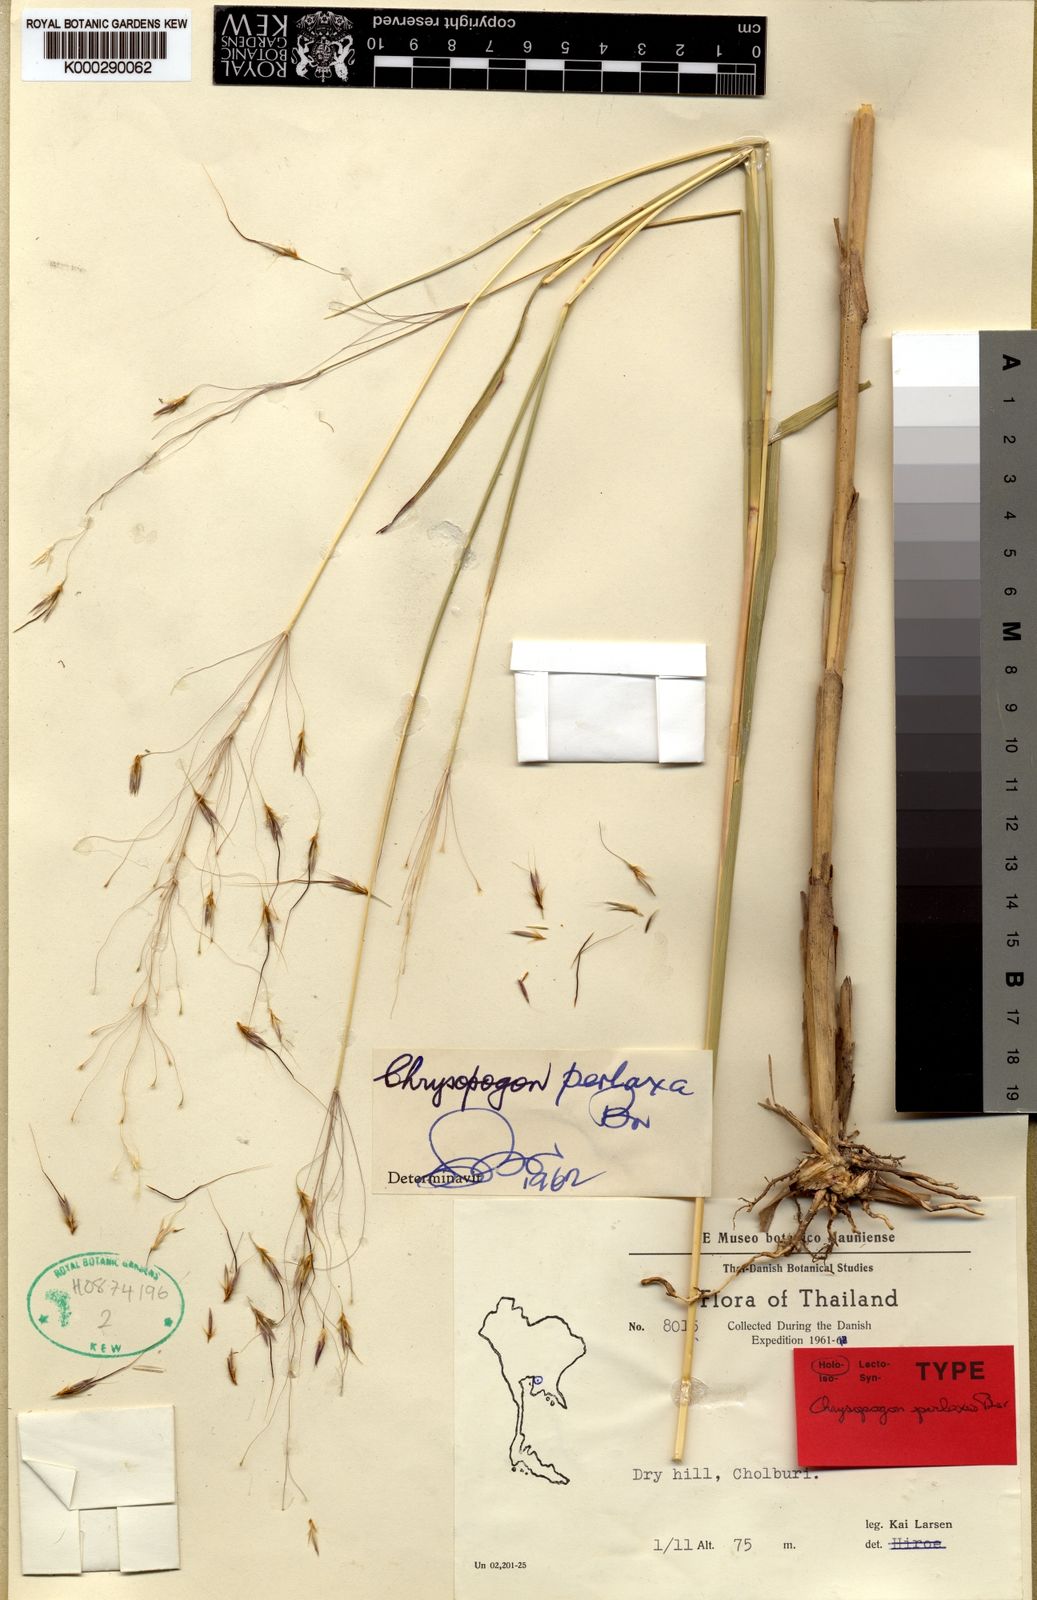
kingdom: Plantae
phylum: Tracheophyta
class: Liliopsida
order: Poales
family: Poaceae
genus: Chrysopogon
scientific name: Chrysopogon perlaxus
